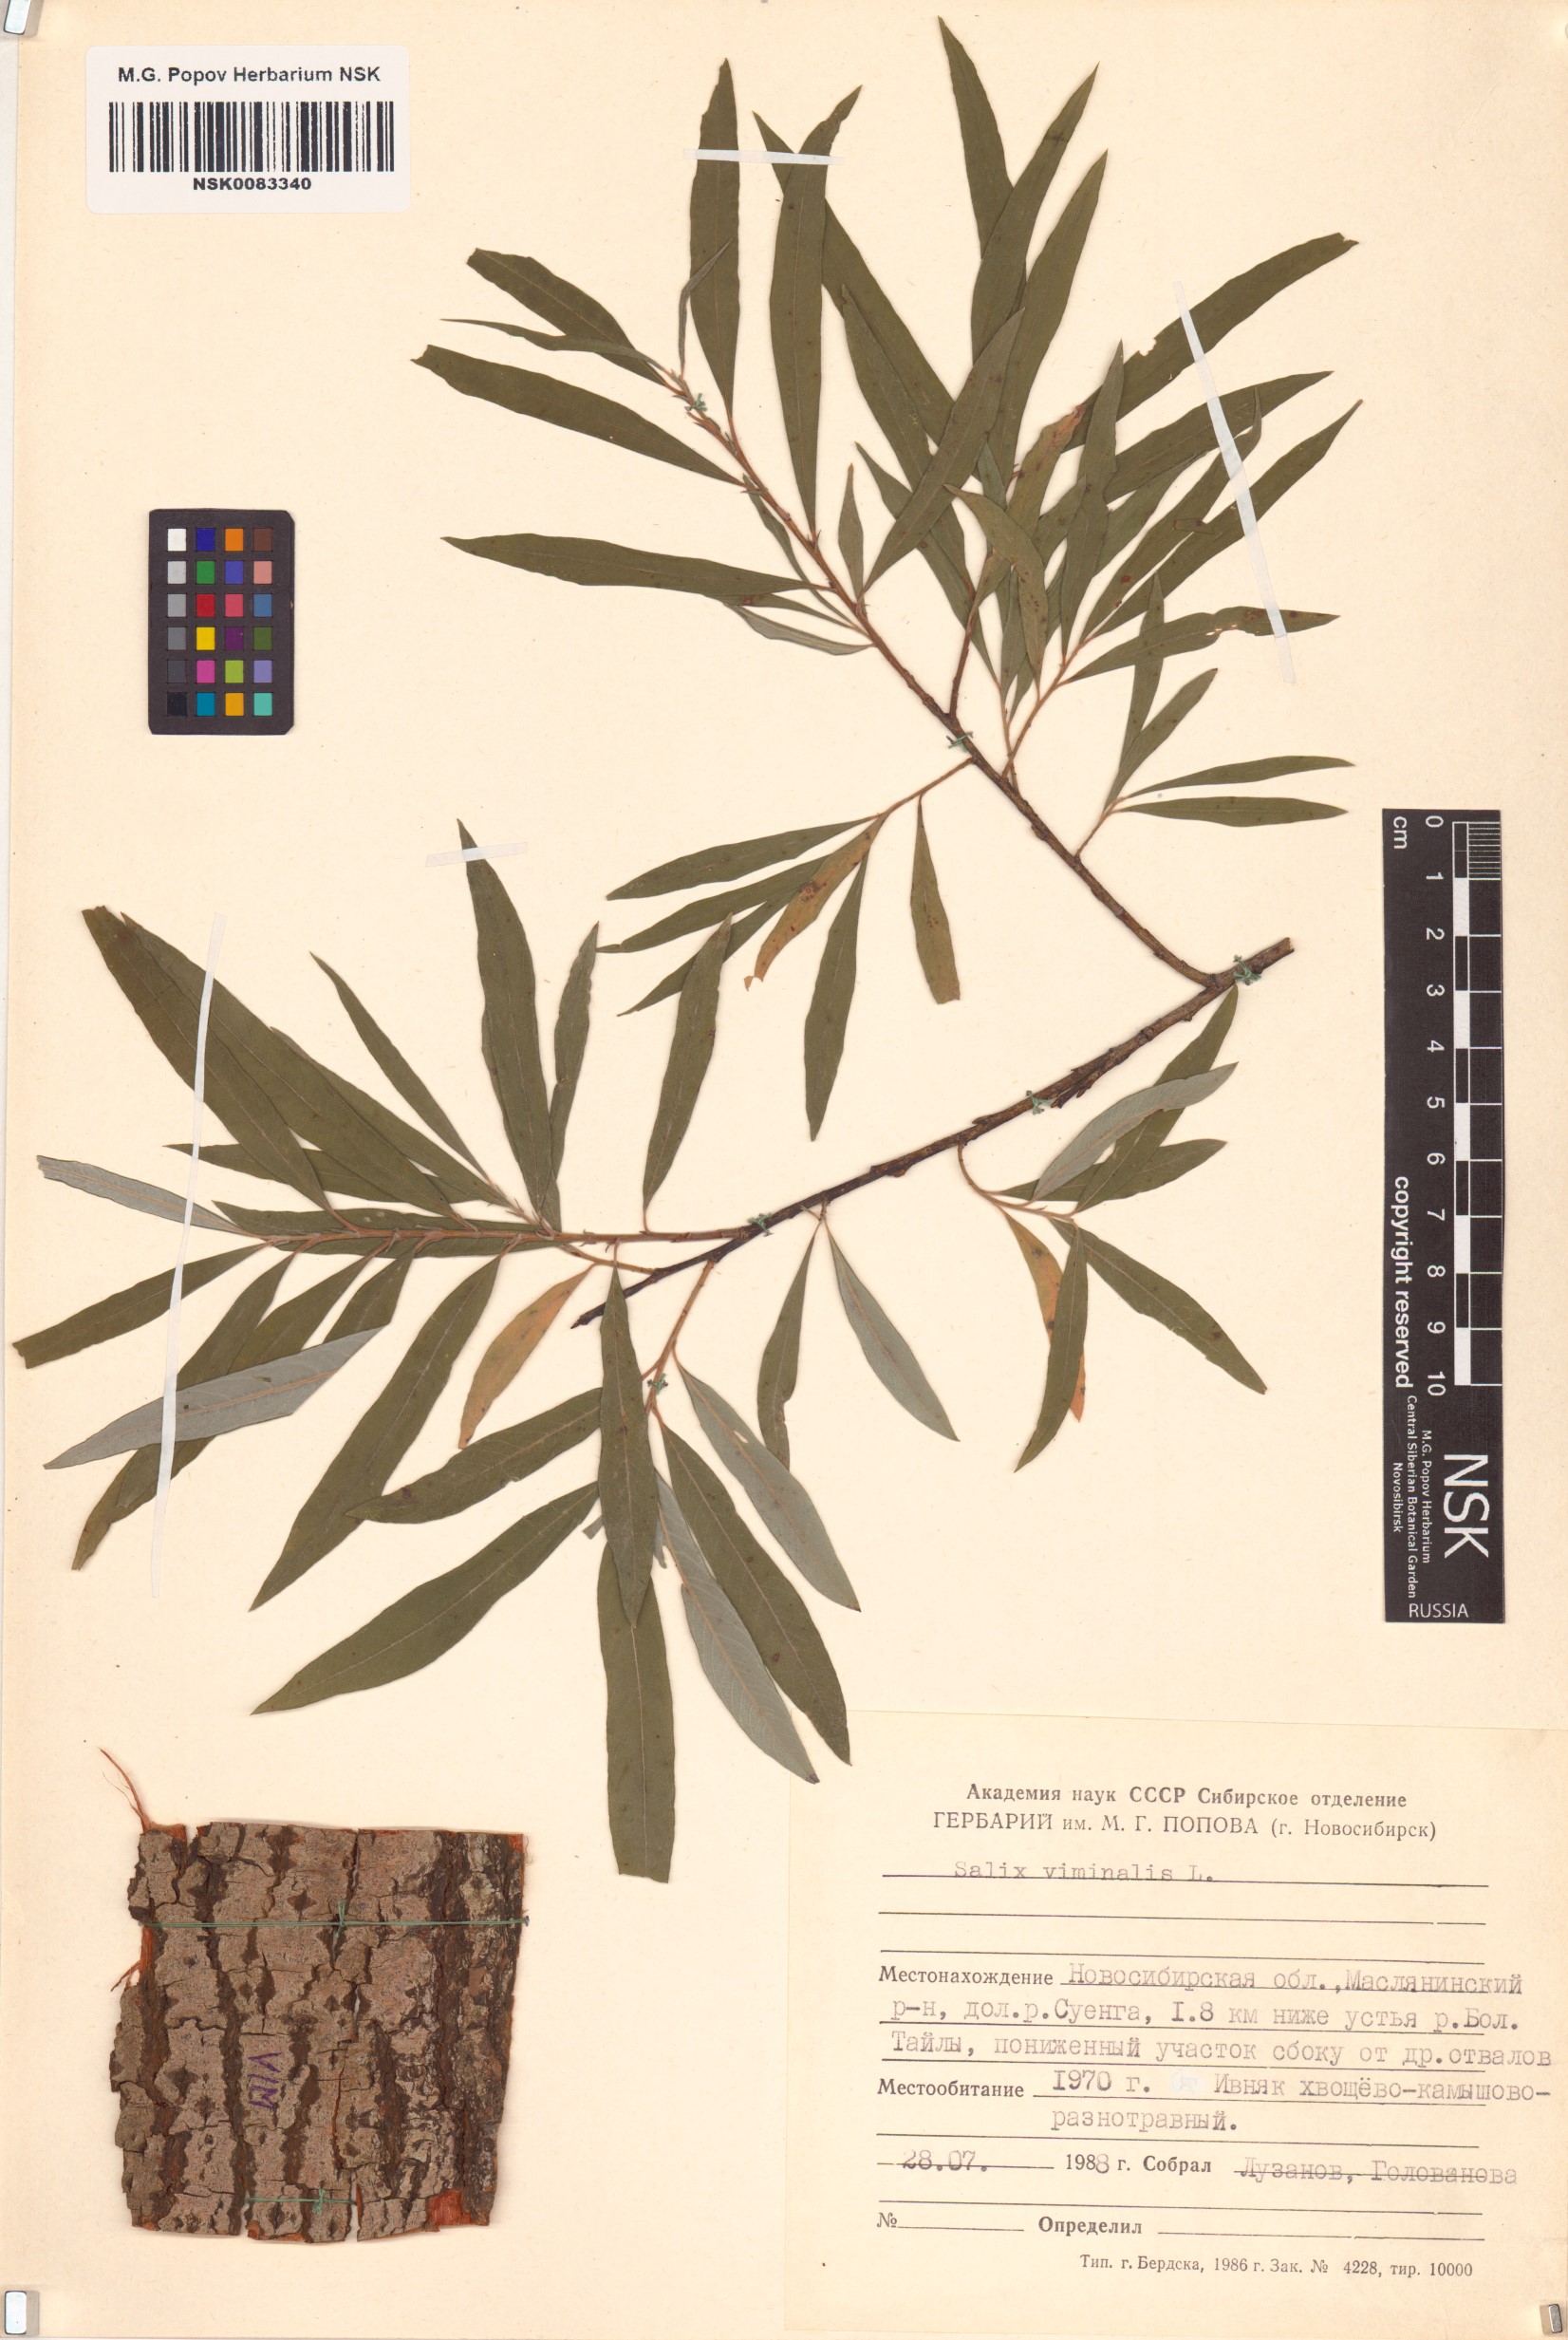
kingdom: Plantae
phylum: Tracheophyta
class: Magnoliopsida
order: Malpighiales
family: Salicaceae
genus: Salix
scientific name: Salix viminalis
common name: Osier
